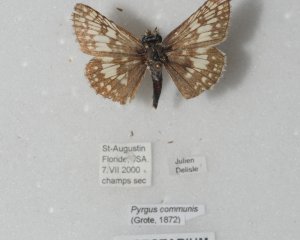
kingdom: Animalia
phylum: Arthropoda
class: Insecta
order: Lepidoptera
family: Hesperiidae
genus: Pyrgus
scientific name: Pyrgus communis
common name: Common Checkered-Skipper
